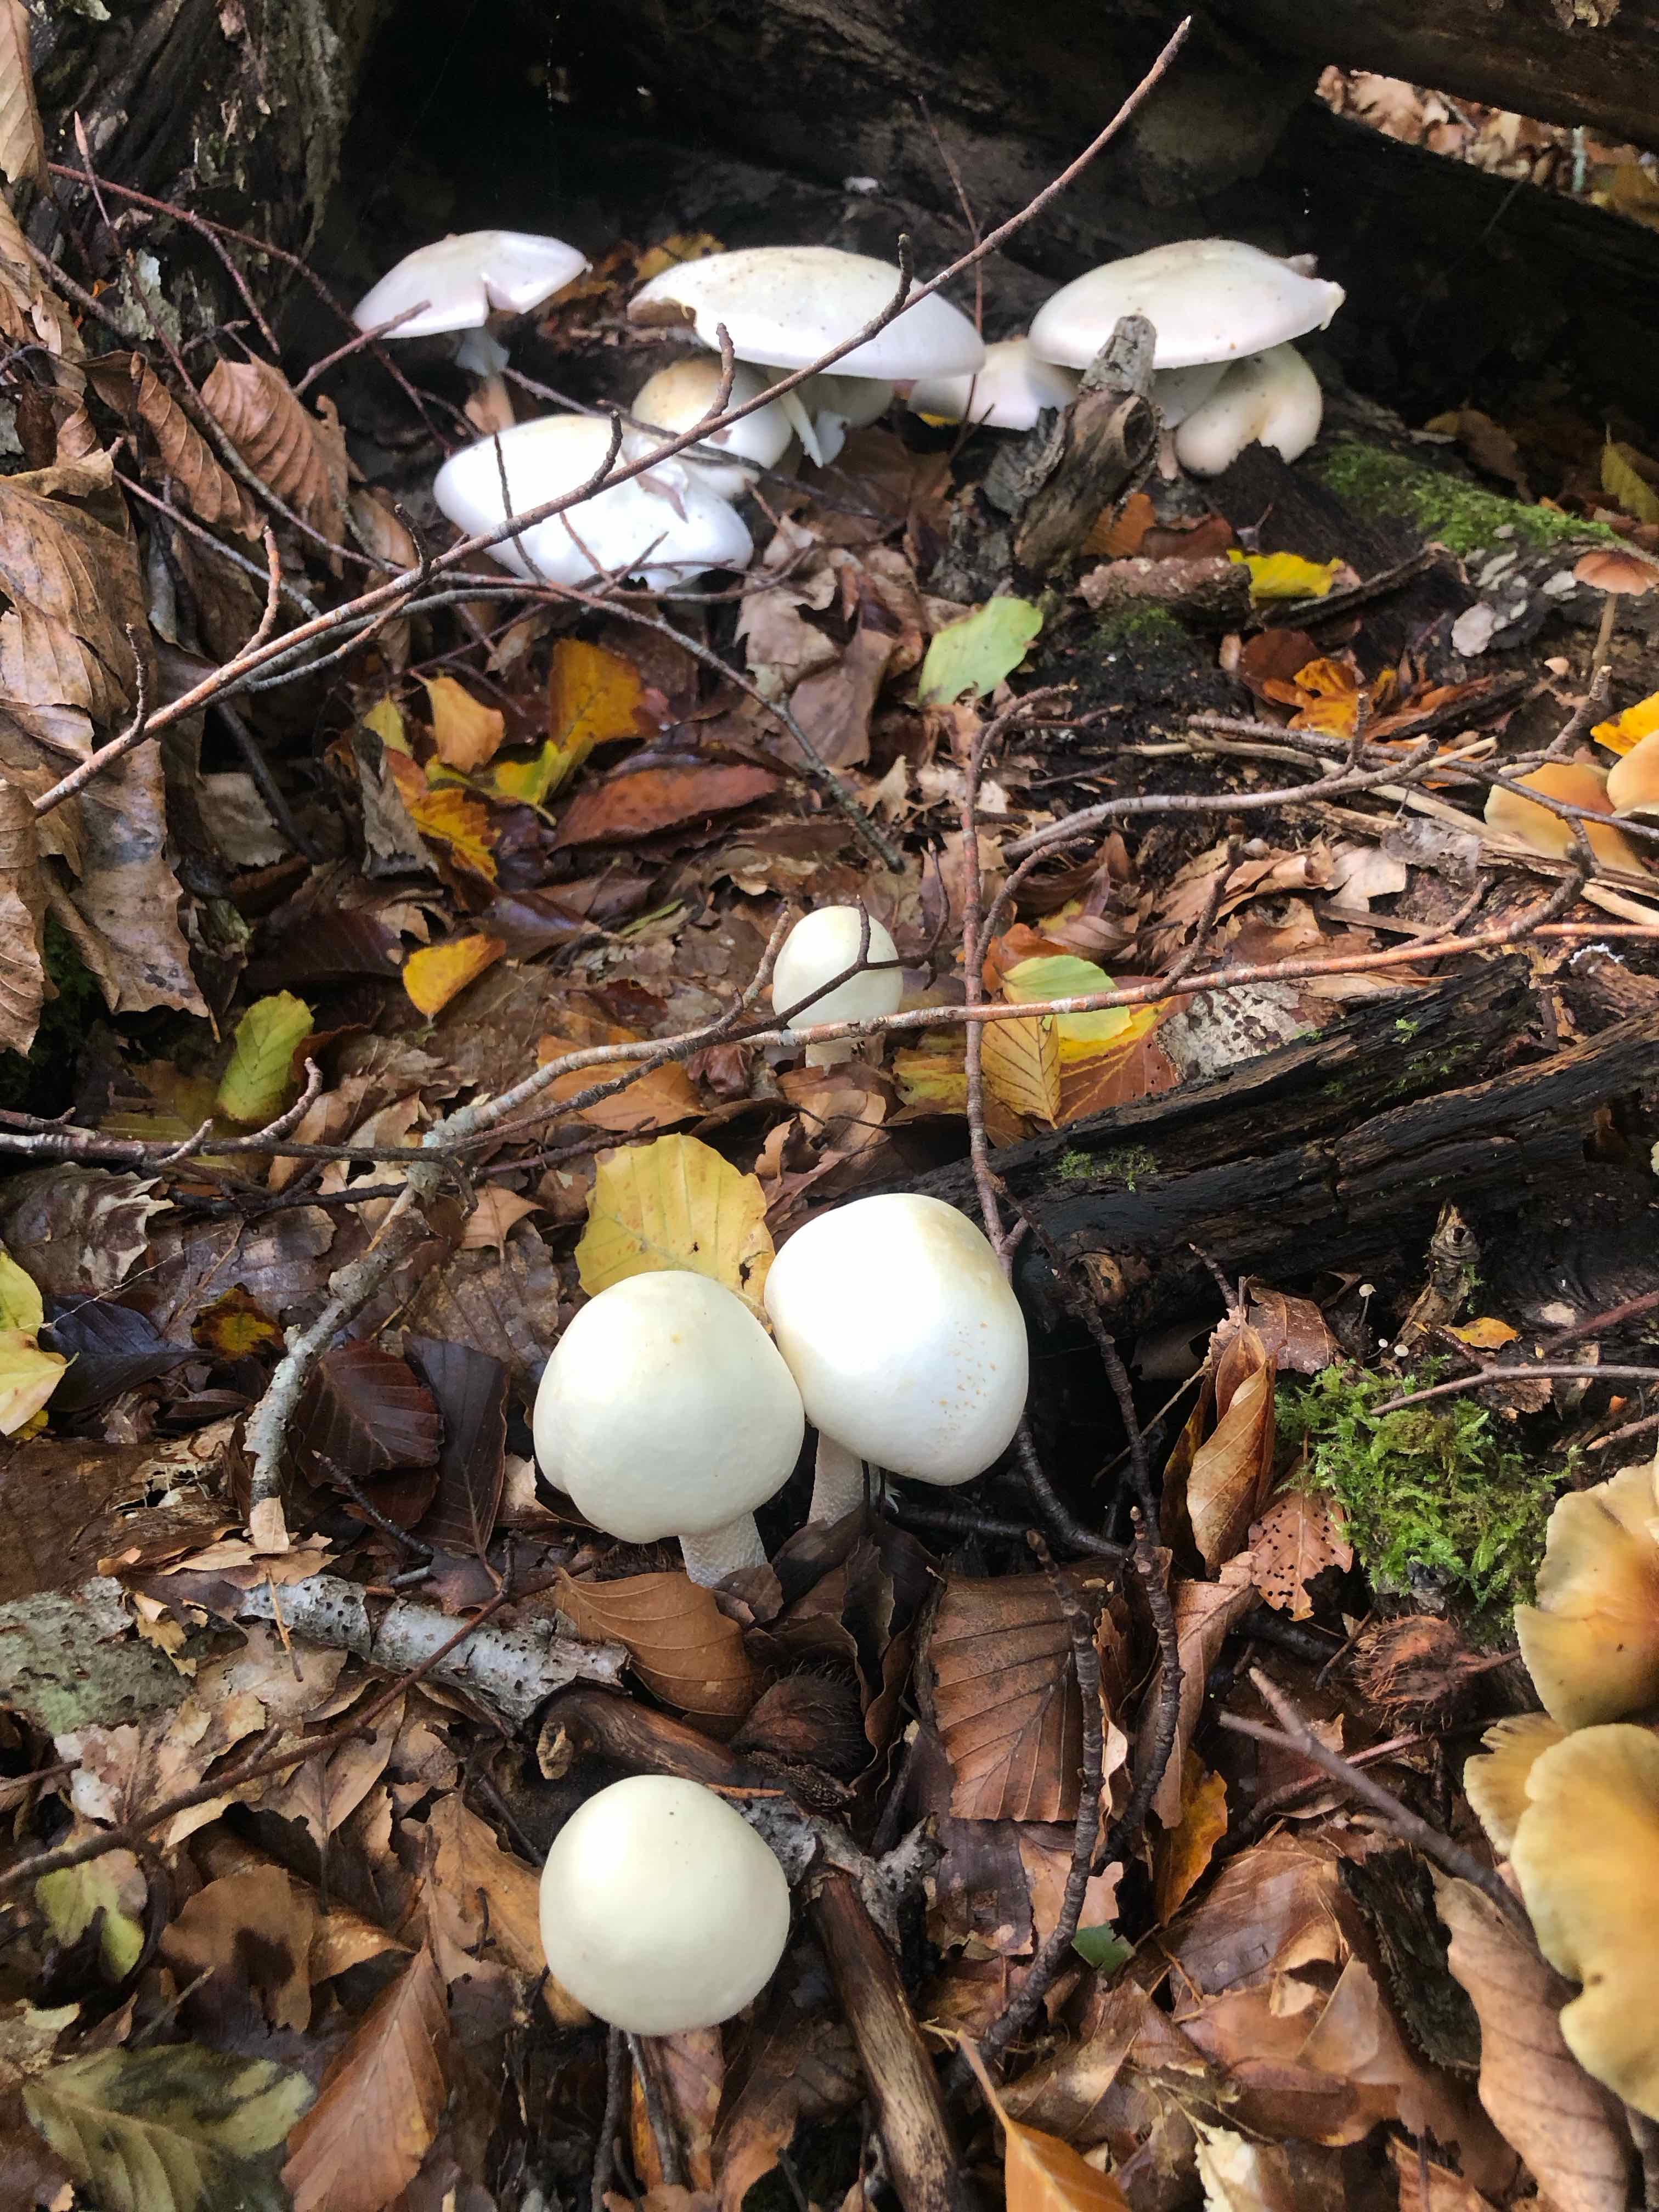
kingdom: Fungi
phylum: Basidiomycota
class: Agaricomycetes
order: Agaricales
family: Agaricaceae
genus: Agaricus
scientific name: Agaricus sylvicola
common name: gulhvid champignon
